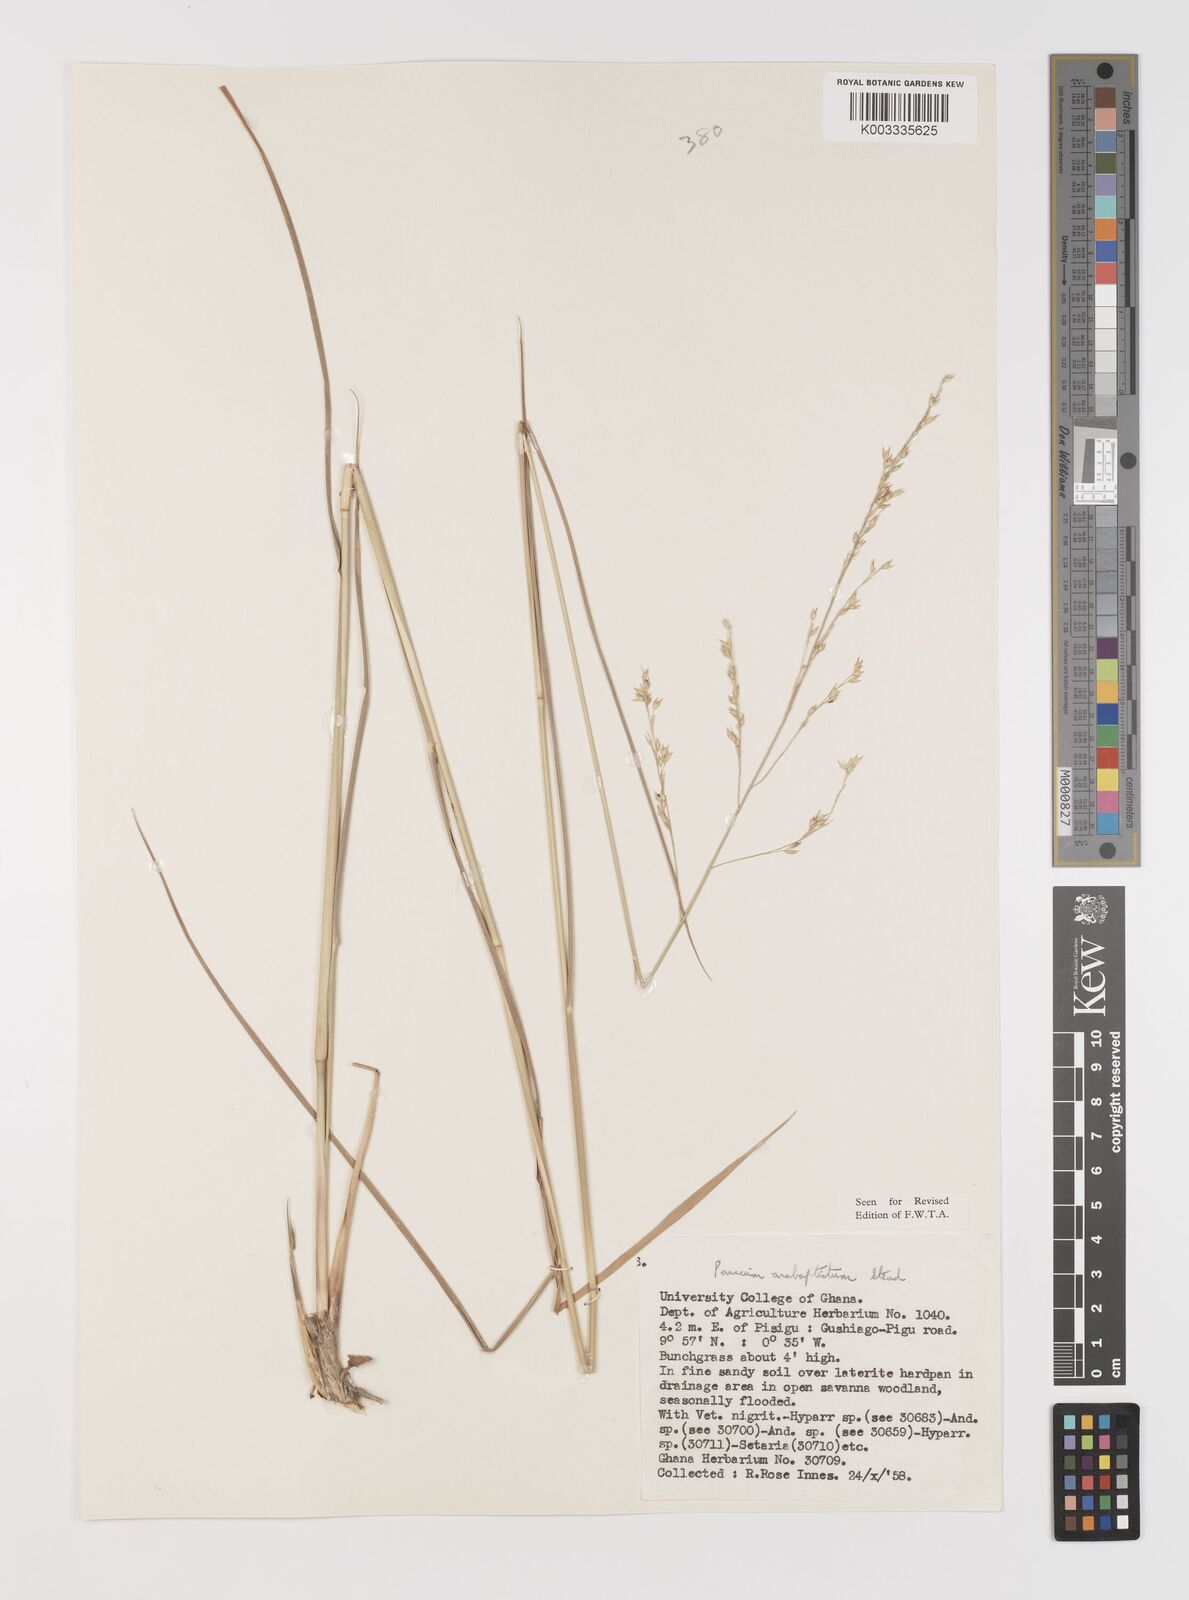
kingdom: Plantae
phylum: Tracheophyta
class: Liliopsida
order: Poales
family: Poaceae
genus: Panicum
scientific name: Panicum anabaptistum
